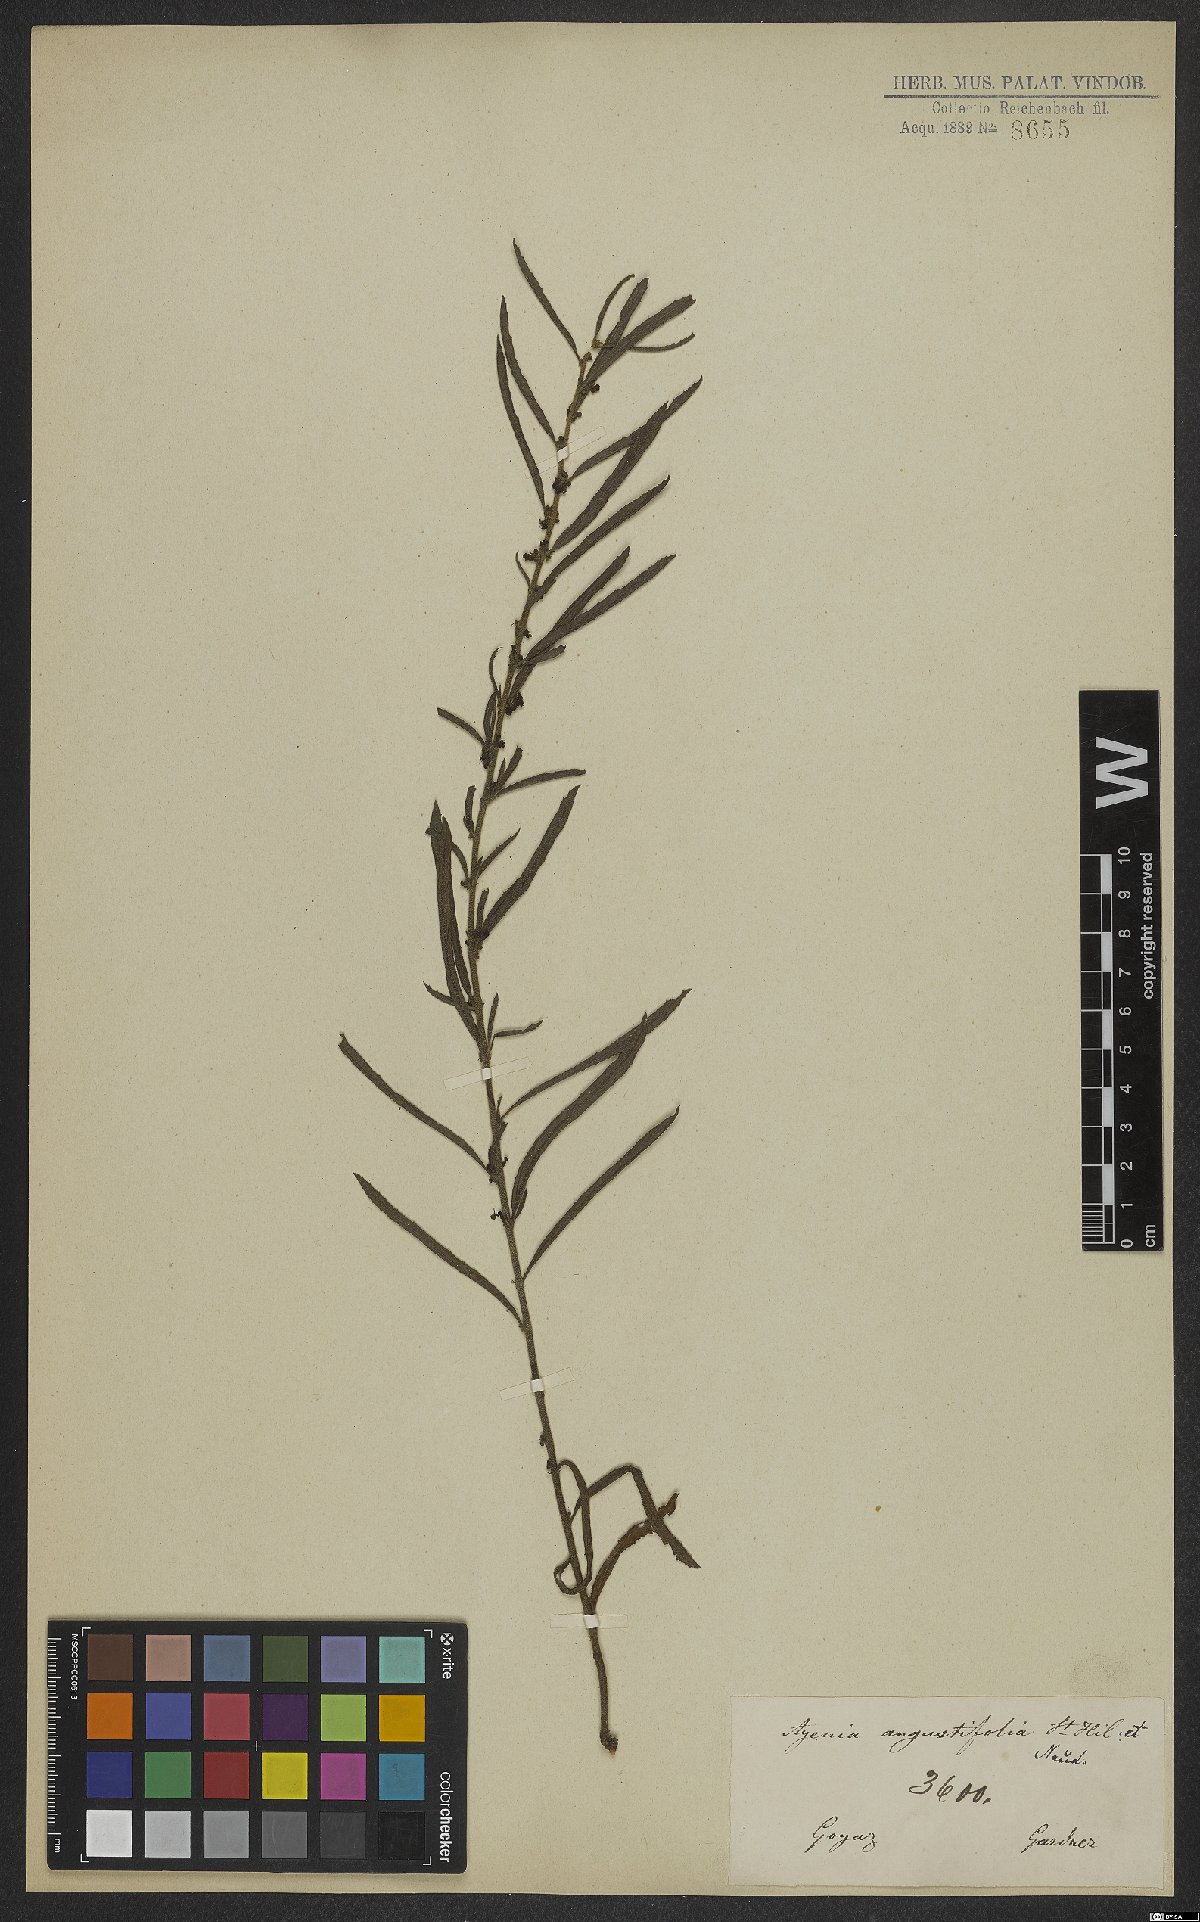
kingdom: Plantae
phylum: Tracheophyta
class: Magnoliopsida
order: Malvales
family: Malvaceae
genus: Ayenia
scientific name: Ayenia angustifolia
